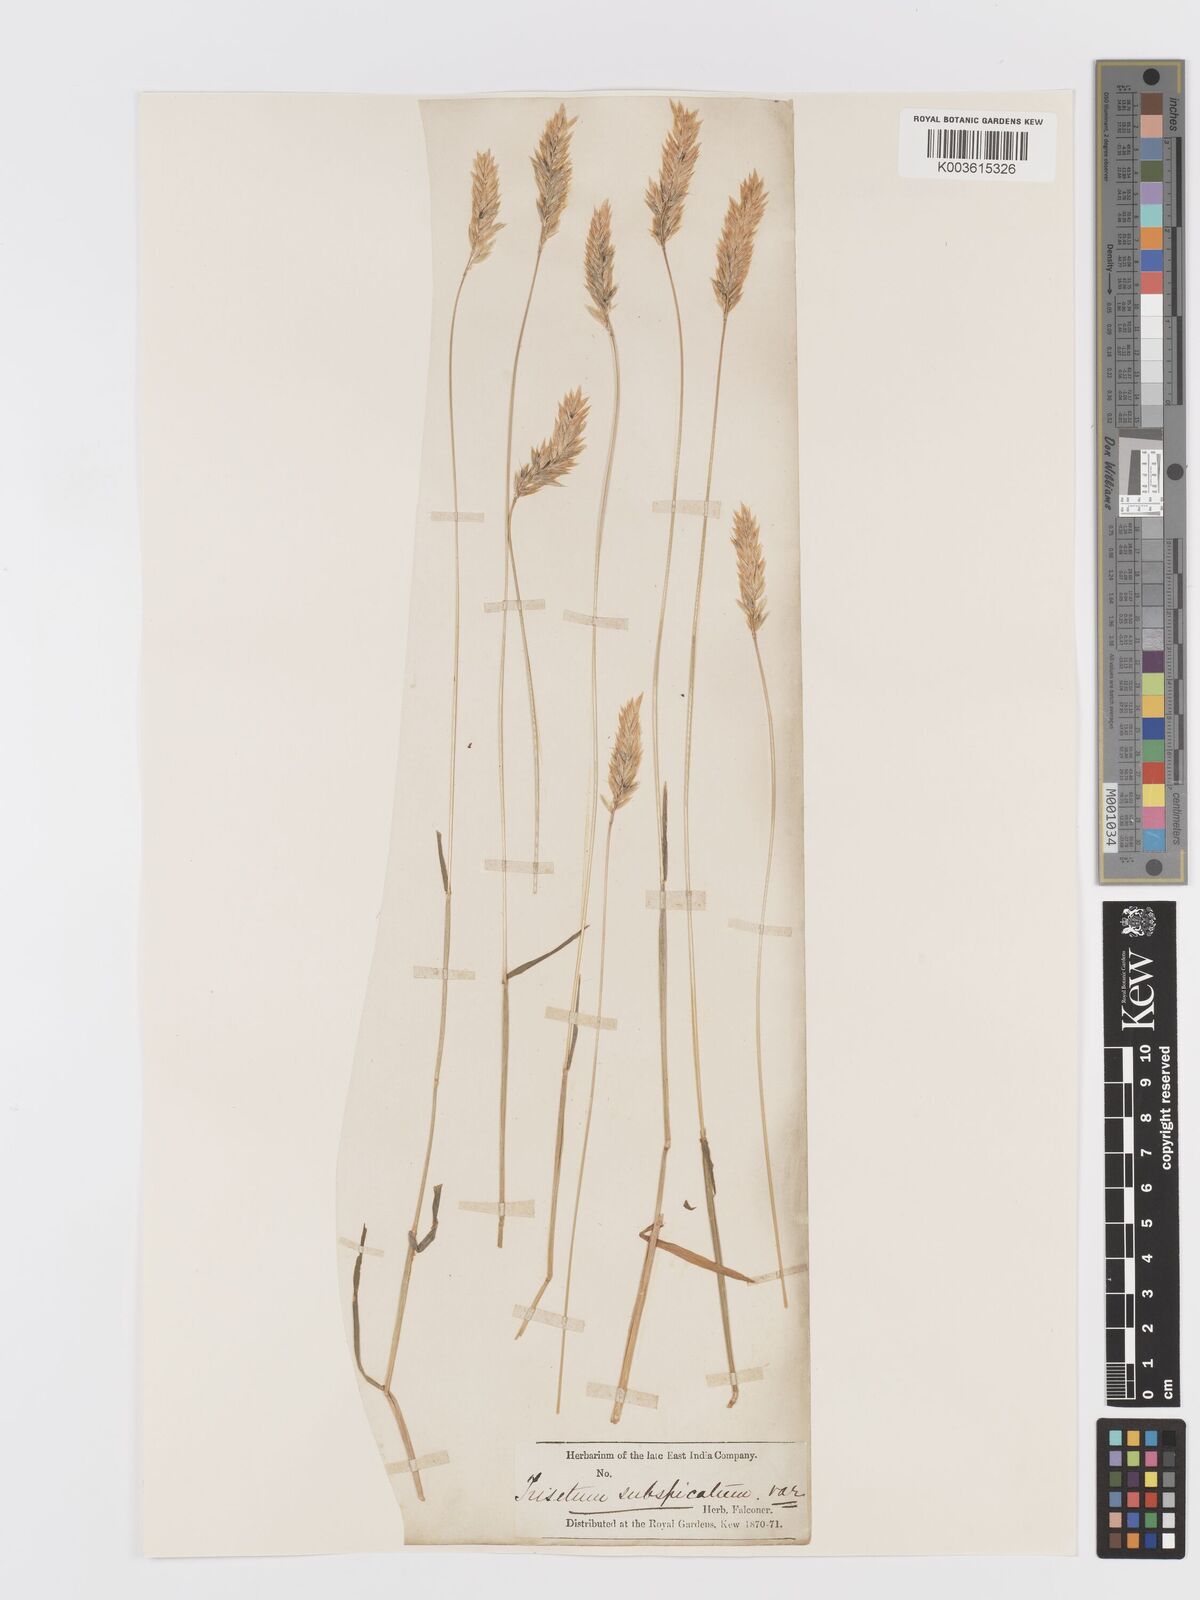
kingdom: Plantae
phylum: Tracheophyta
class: Liliopsida
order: Poales
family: Poaceae
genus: Koeleria
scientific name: Koeleria spicata
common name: Mountain trisetum
